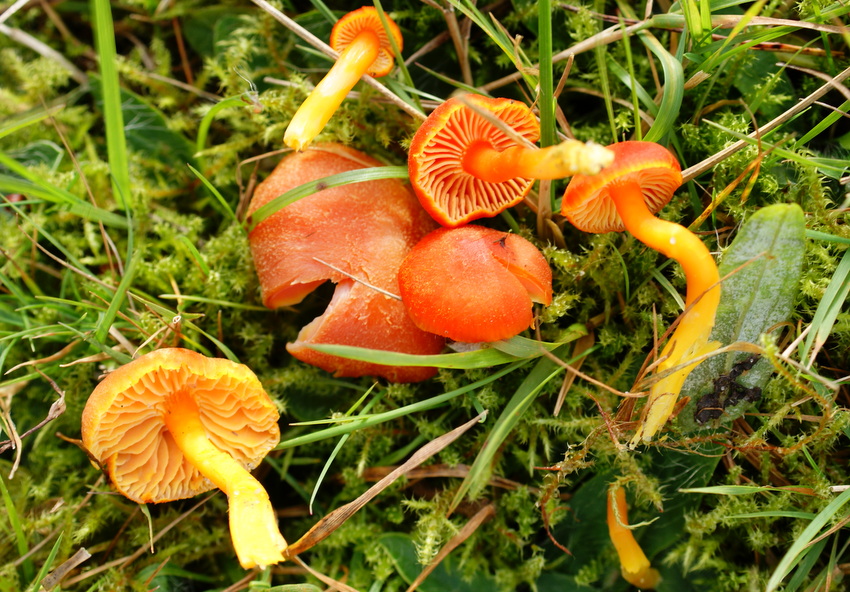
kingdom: Fungi
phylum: Basidiomycota
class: Agaricomycetes
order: Agaricales
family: Hygrophoraceae
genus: Hygrocybe
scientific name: Hygrocybe miniata
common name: mønje-vokshat
